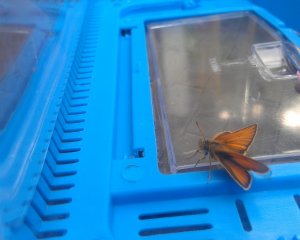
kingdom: Animalia
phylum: Arthropoda
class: Insecta
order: Lepidoptera
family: Hesperiidae
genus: Thymelicus
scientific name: Thymelicus lineola
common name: European Skipper
